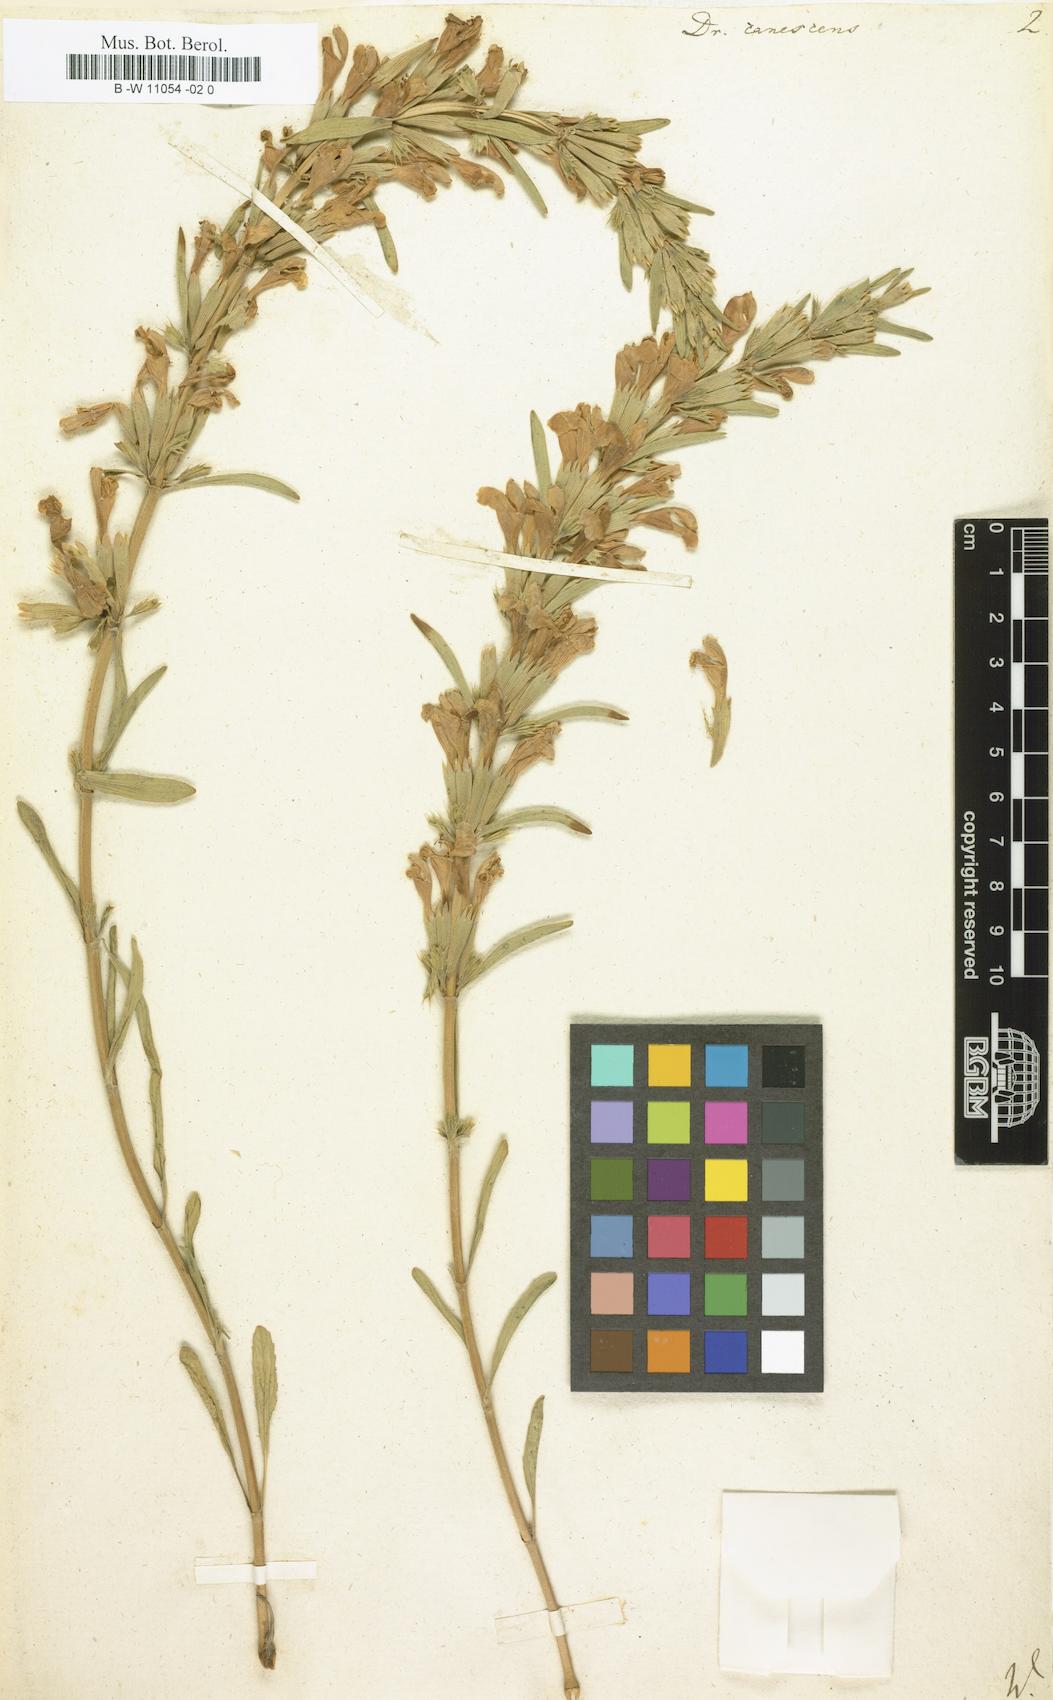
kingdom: Plantae
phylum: Tracheophyta
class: Magnoliopsida
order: Lamiales
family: Lamiaceae
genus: Lallemantia
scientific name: Lallemantia canescens
